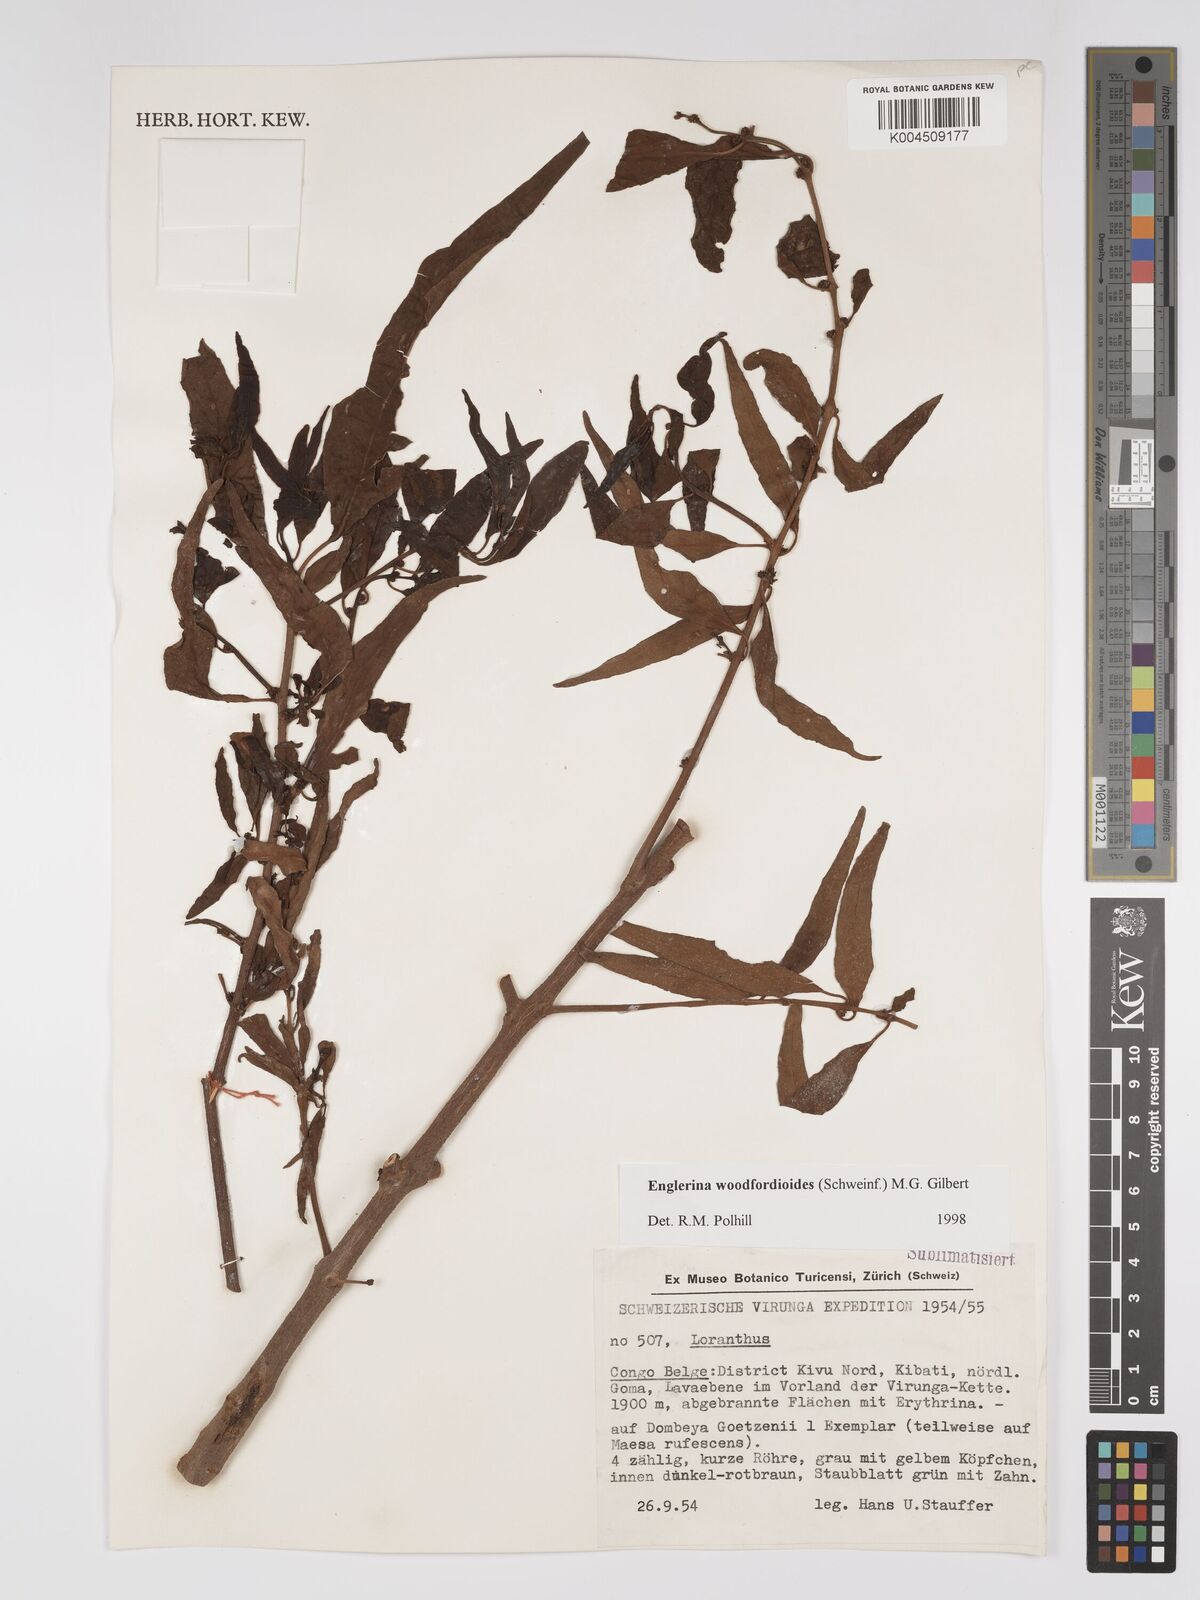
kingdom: Plantae
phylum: Tracheophyta
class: Magnoliopsida
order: Santalales
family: Loranthaceae
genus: Englerina
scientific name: Englerina woodfordioides
